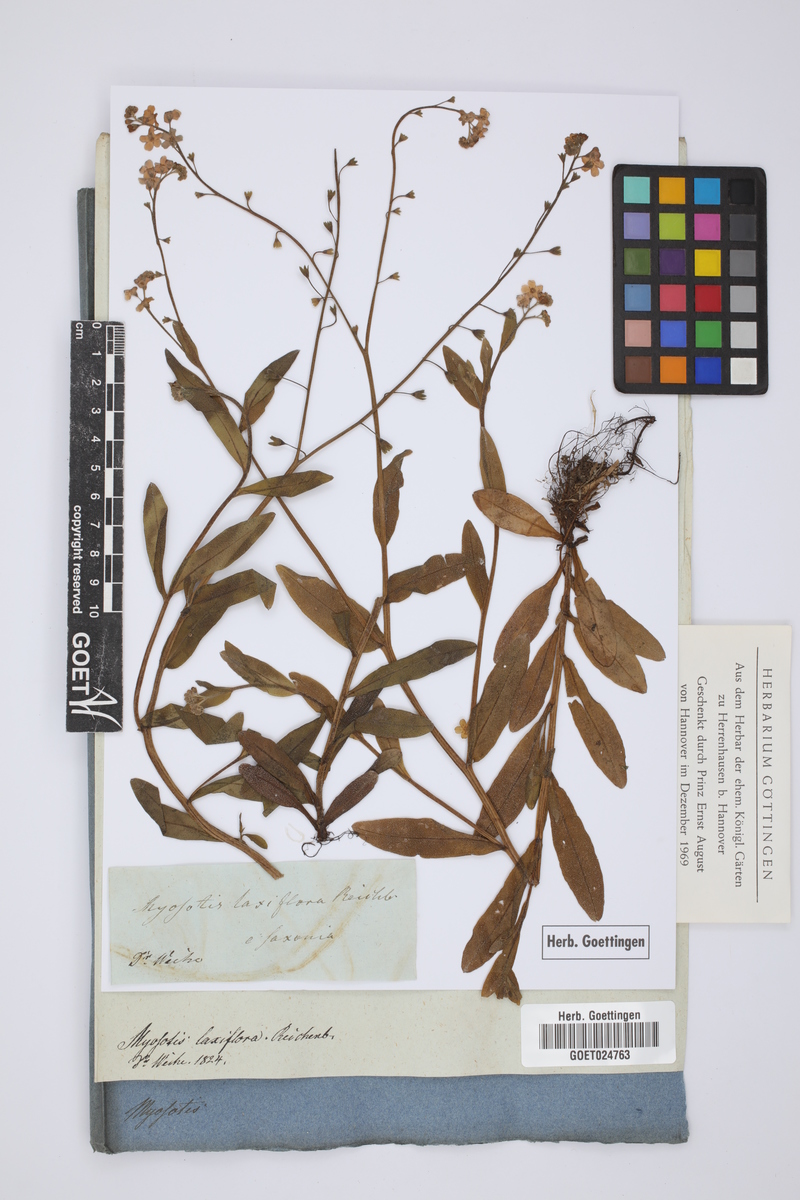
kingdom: Plantae
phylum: Tracheophyta
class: Magnoliopsida
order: Boraginales
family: Boraginaceae
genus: Myosotis
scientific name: Myosotis scorpioides
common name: Water forget-me-not
